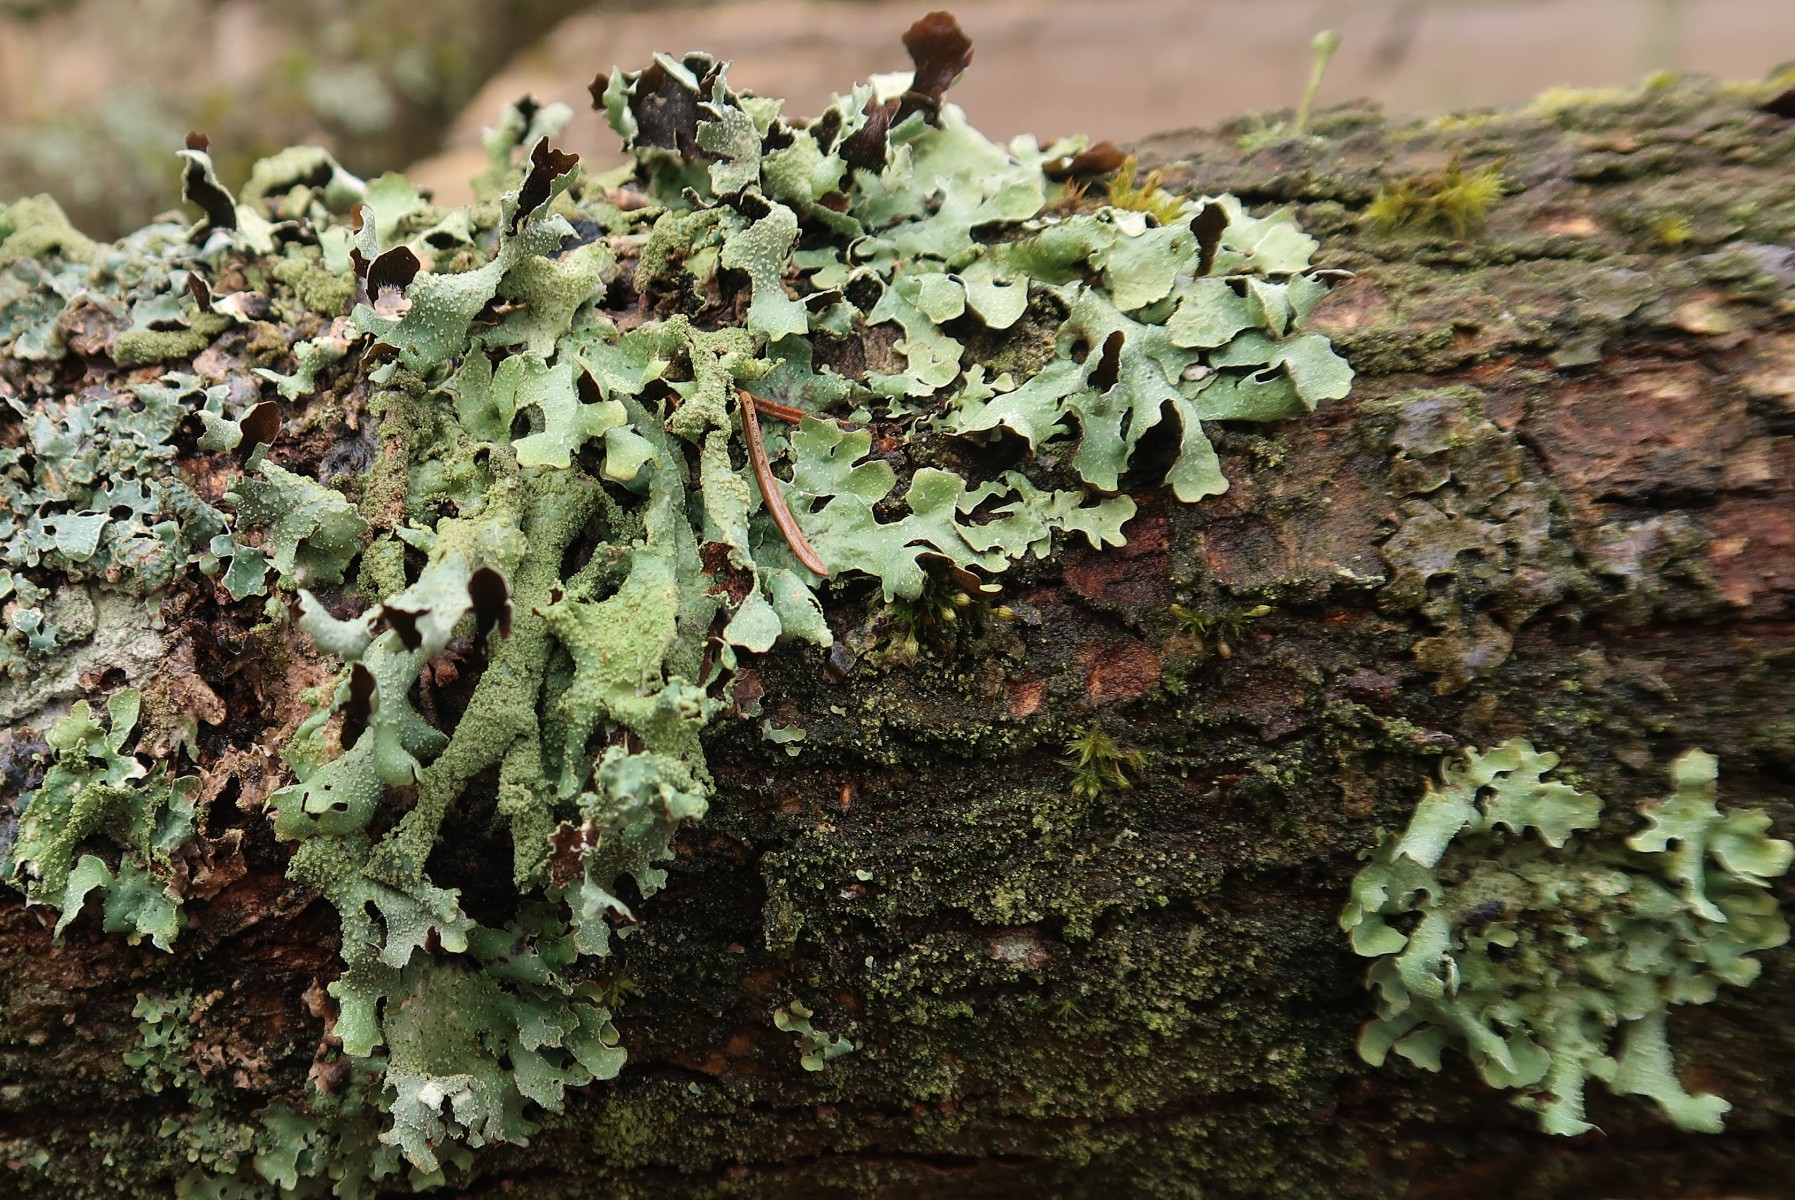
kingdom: Fungi
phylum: Ascomycota
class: Lecanoromycetes
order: Lecanorales
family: Parmeliaceae
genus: Parmelia
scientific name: Parmelia submontana
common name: langlobet skållav
